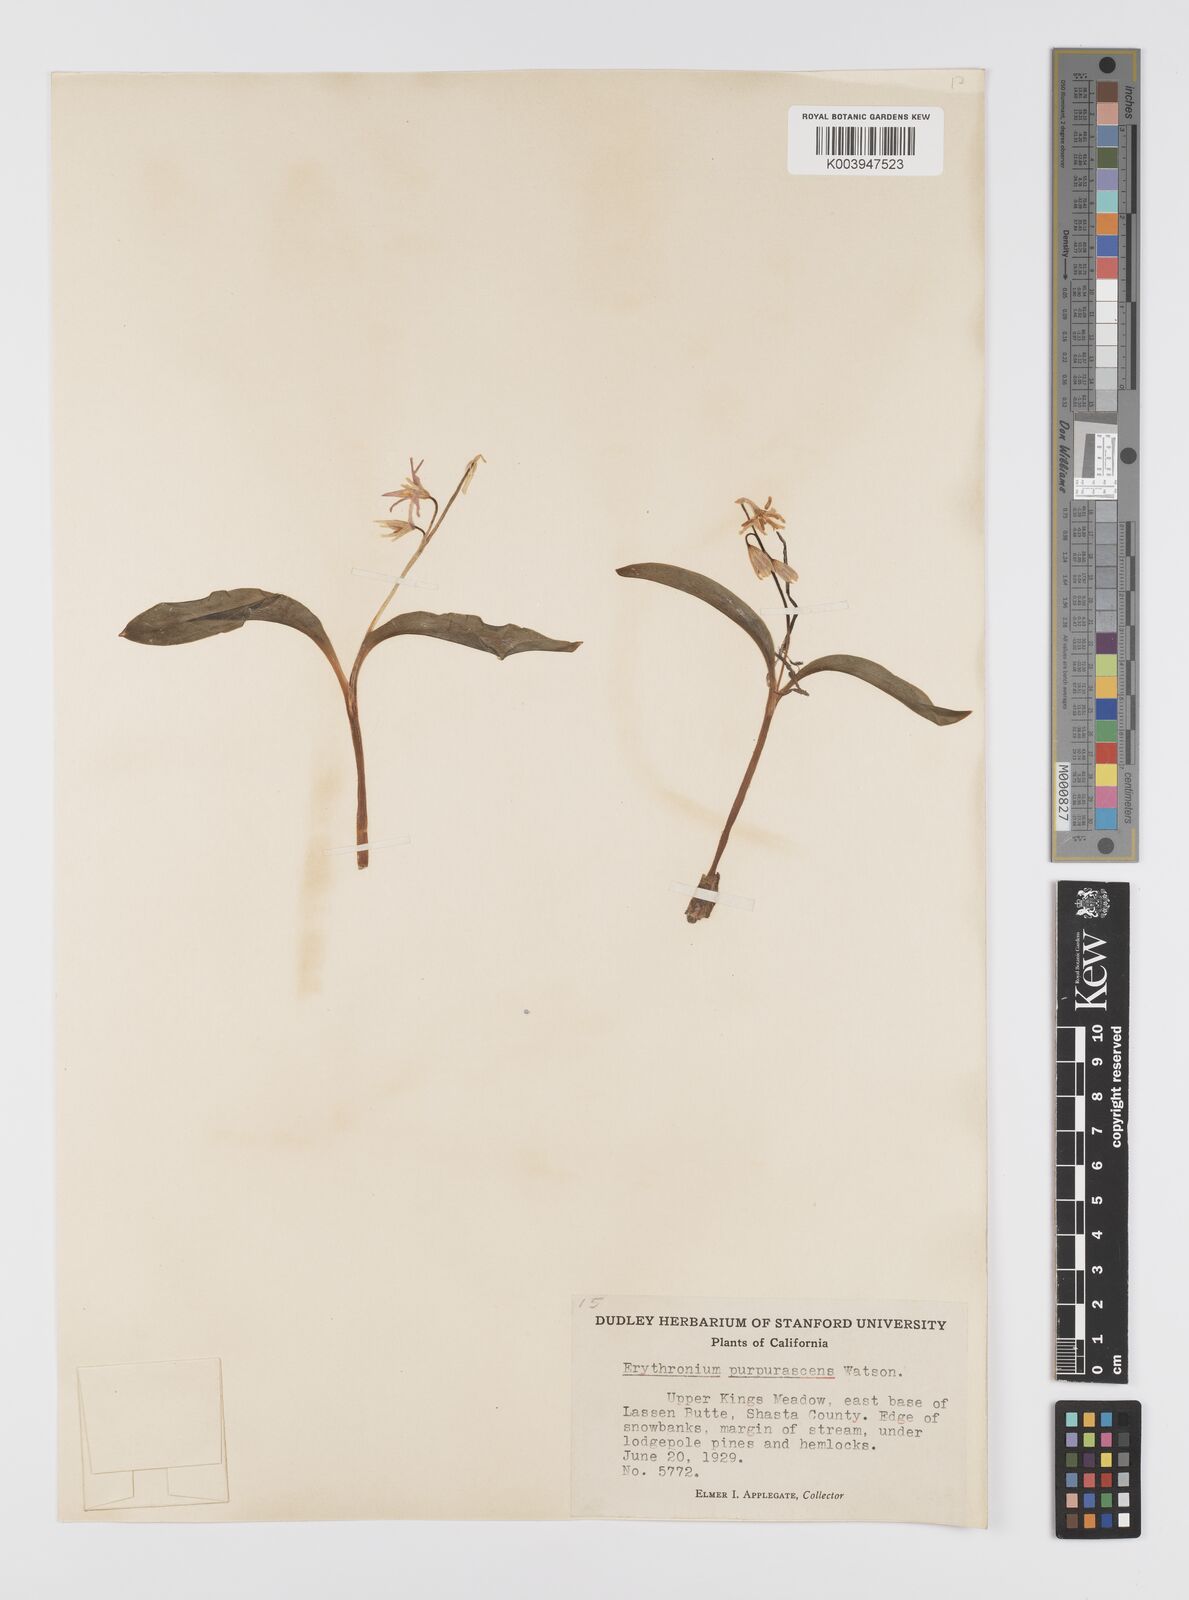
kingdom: Plantae
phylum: Tracheophyta
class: Liliopsida
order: Liliales
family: Liliaceae
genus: Erythronium
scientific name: Erythronium purpurascens
